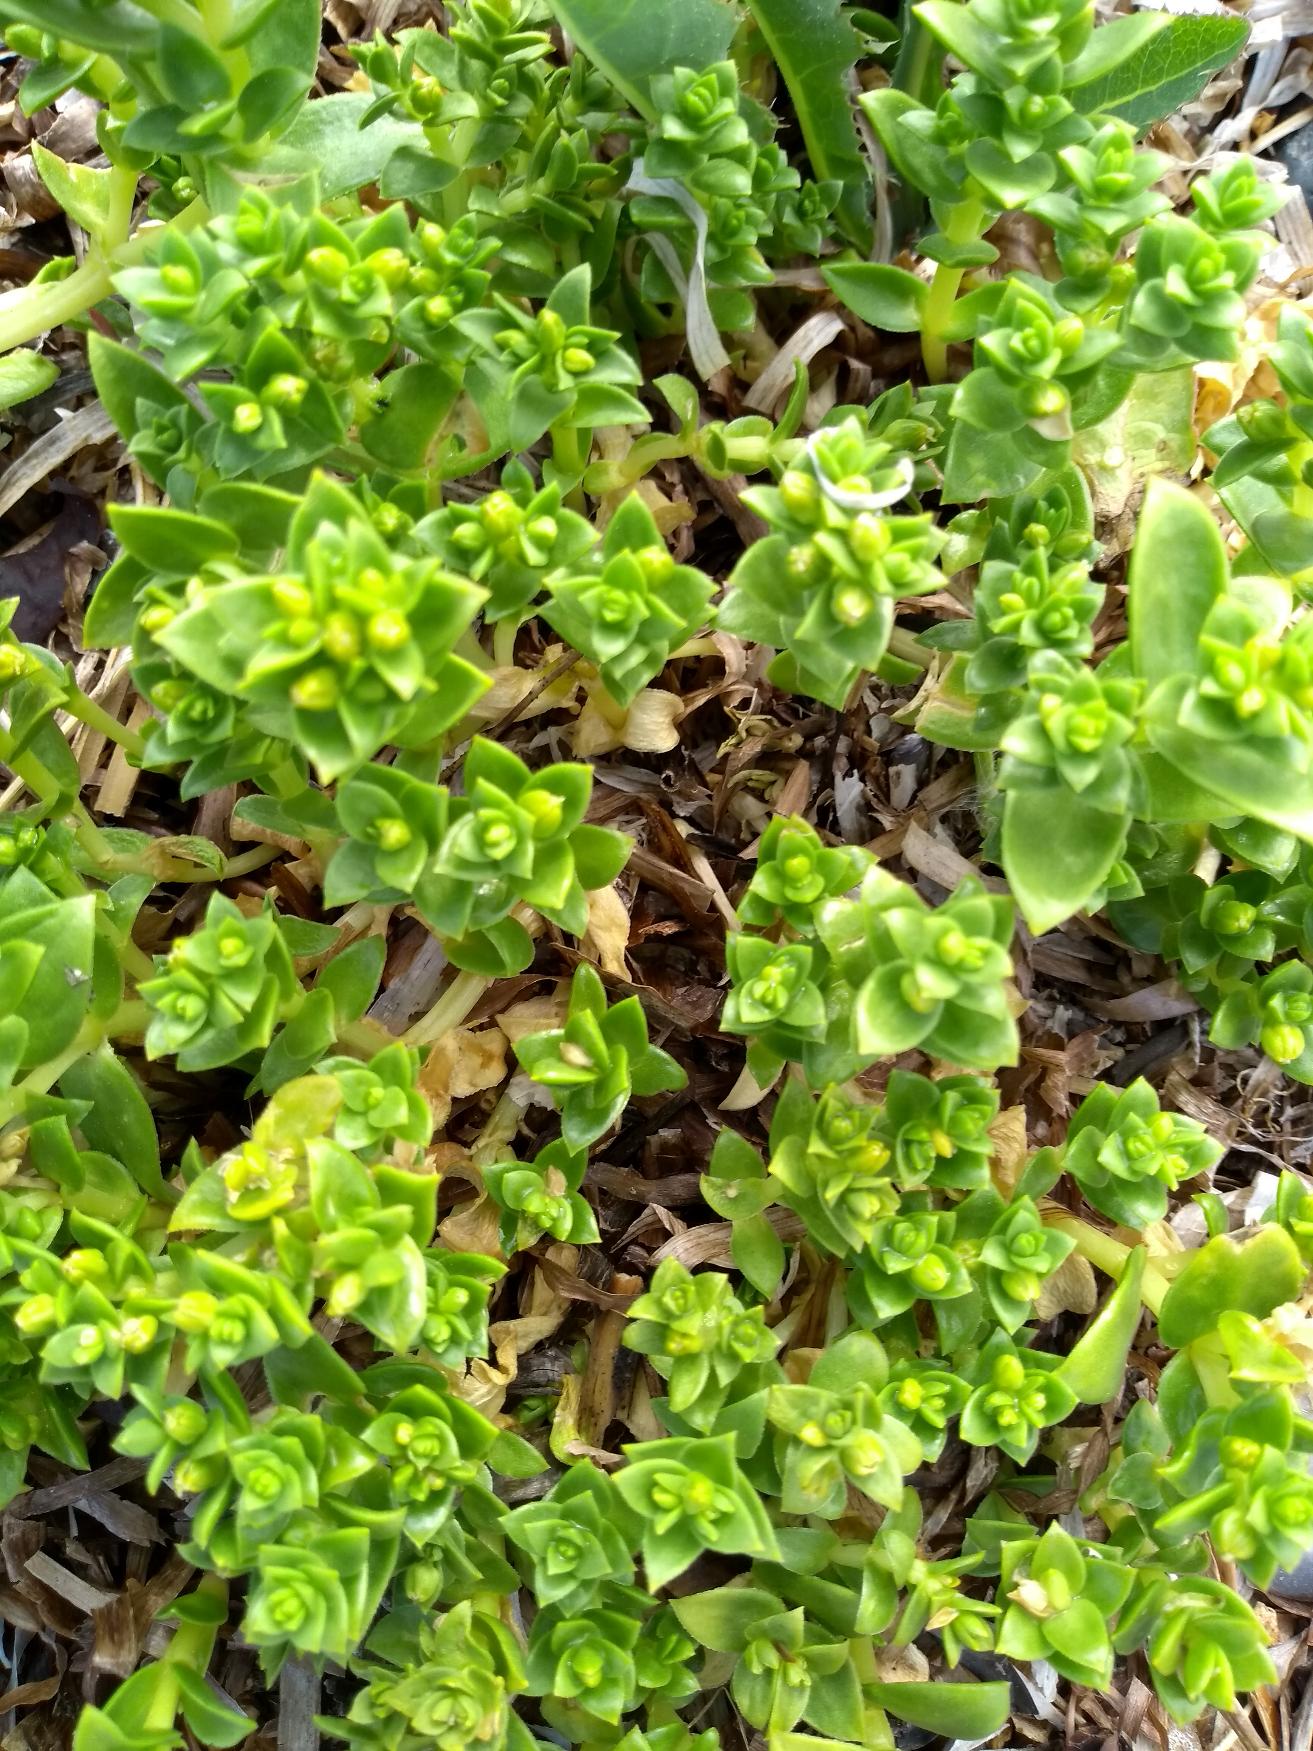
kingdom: Plantae
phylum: Tracheophyta
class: Magnoliopsida
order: Caryophyllales
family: Caryophyllaceae
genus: Honckenya
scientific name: Honckenya peploides
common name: Strandarve
